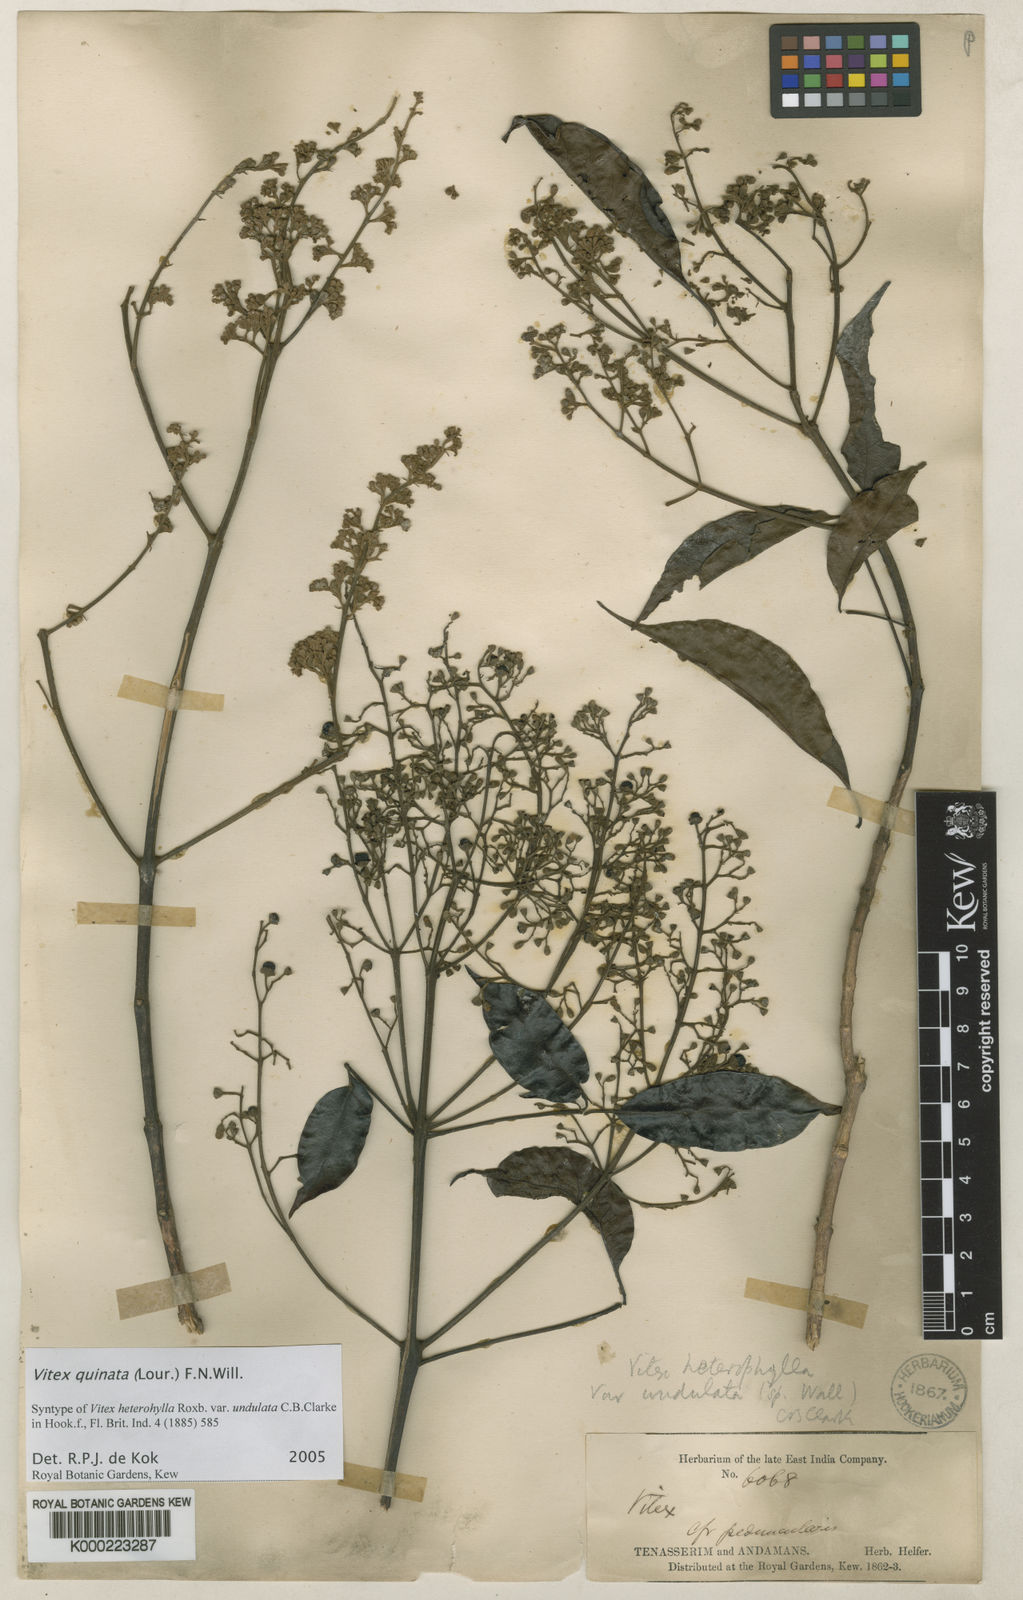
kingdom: Plantae
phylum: Tracheophyta
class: Magnoliopsida
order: Lamiales
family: Lamiaceae
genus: Vitex
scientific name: Vitex quinata
